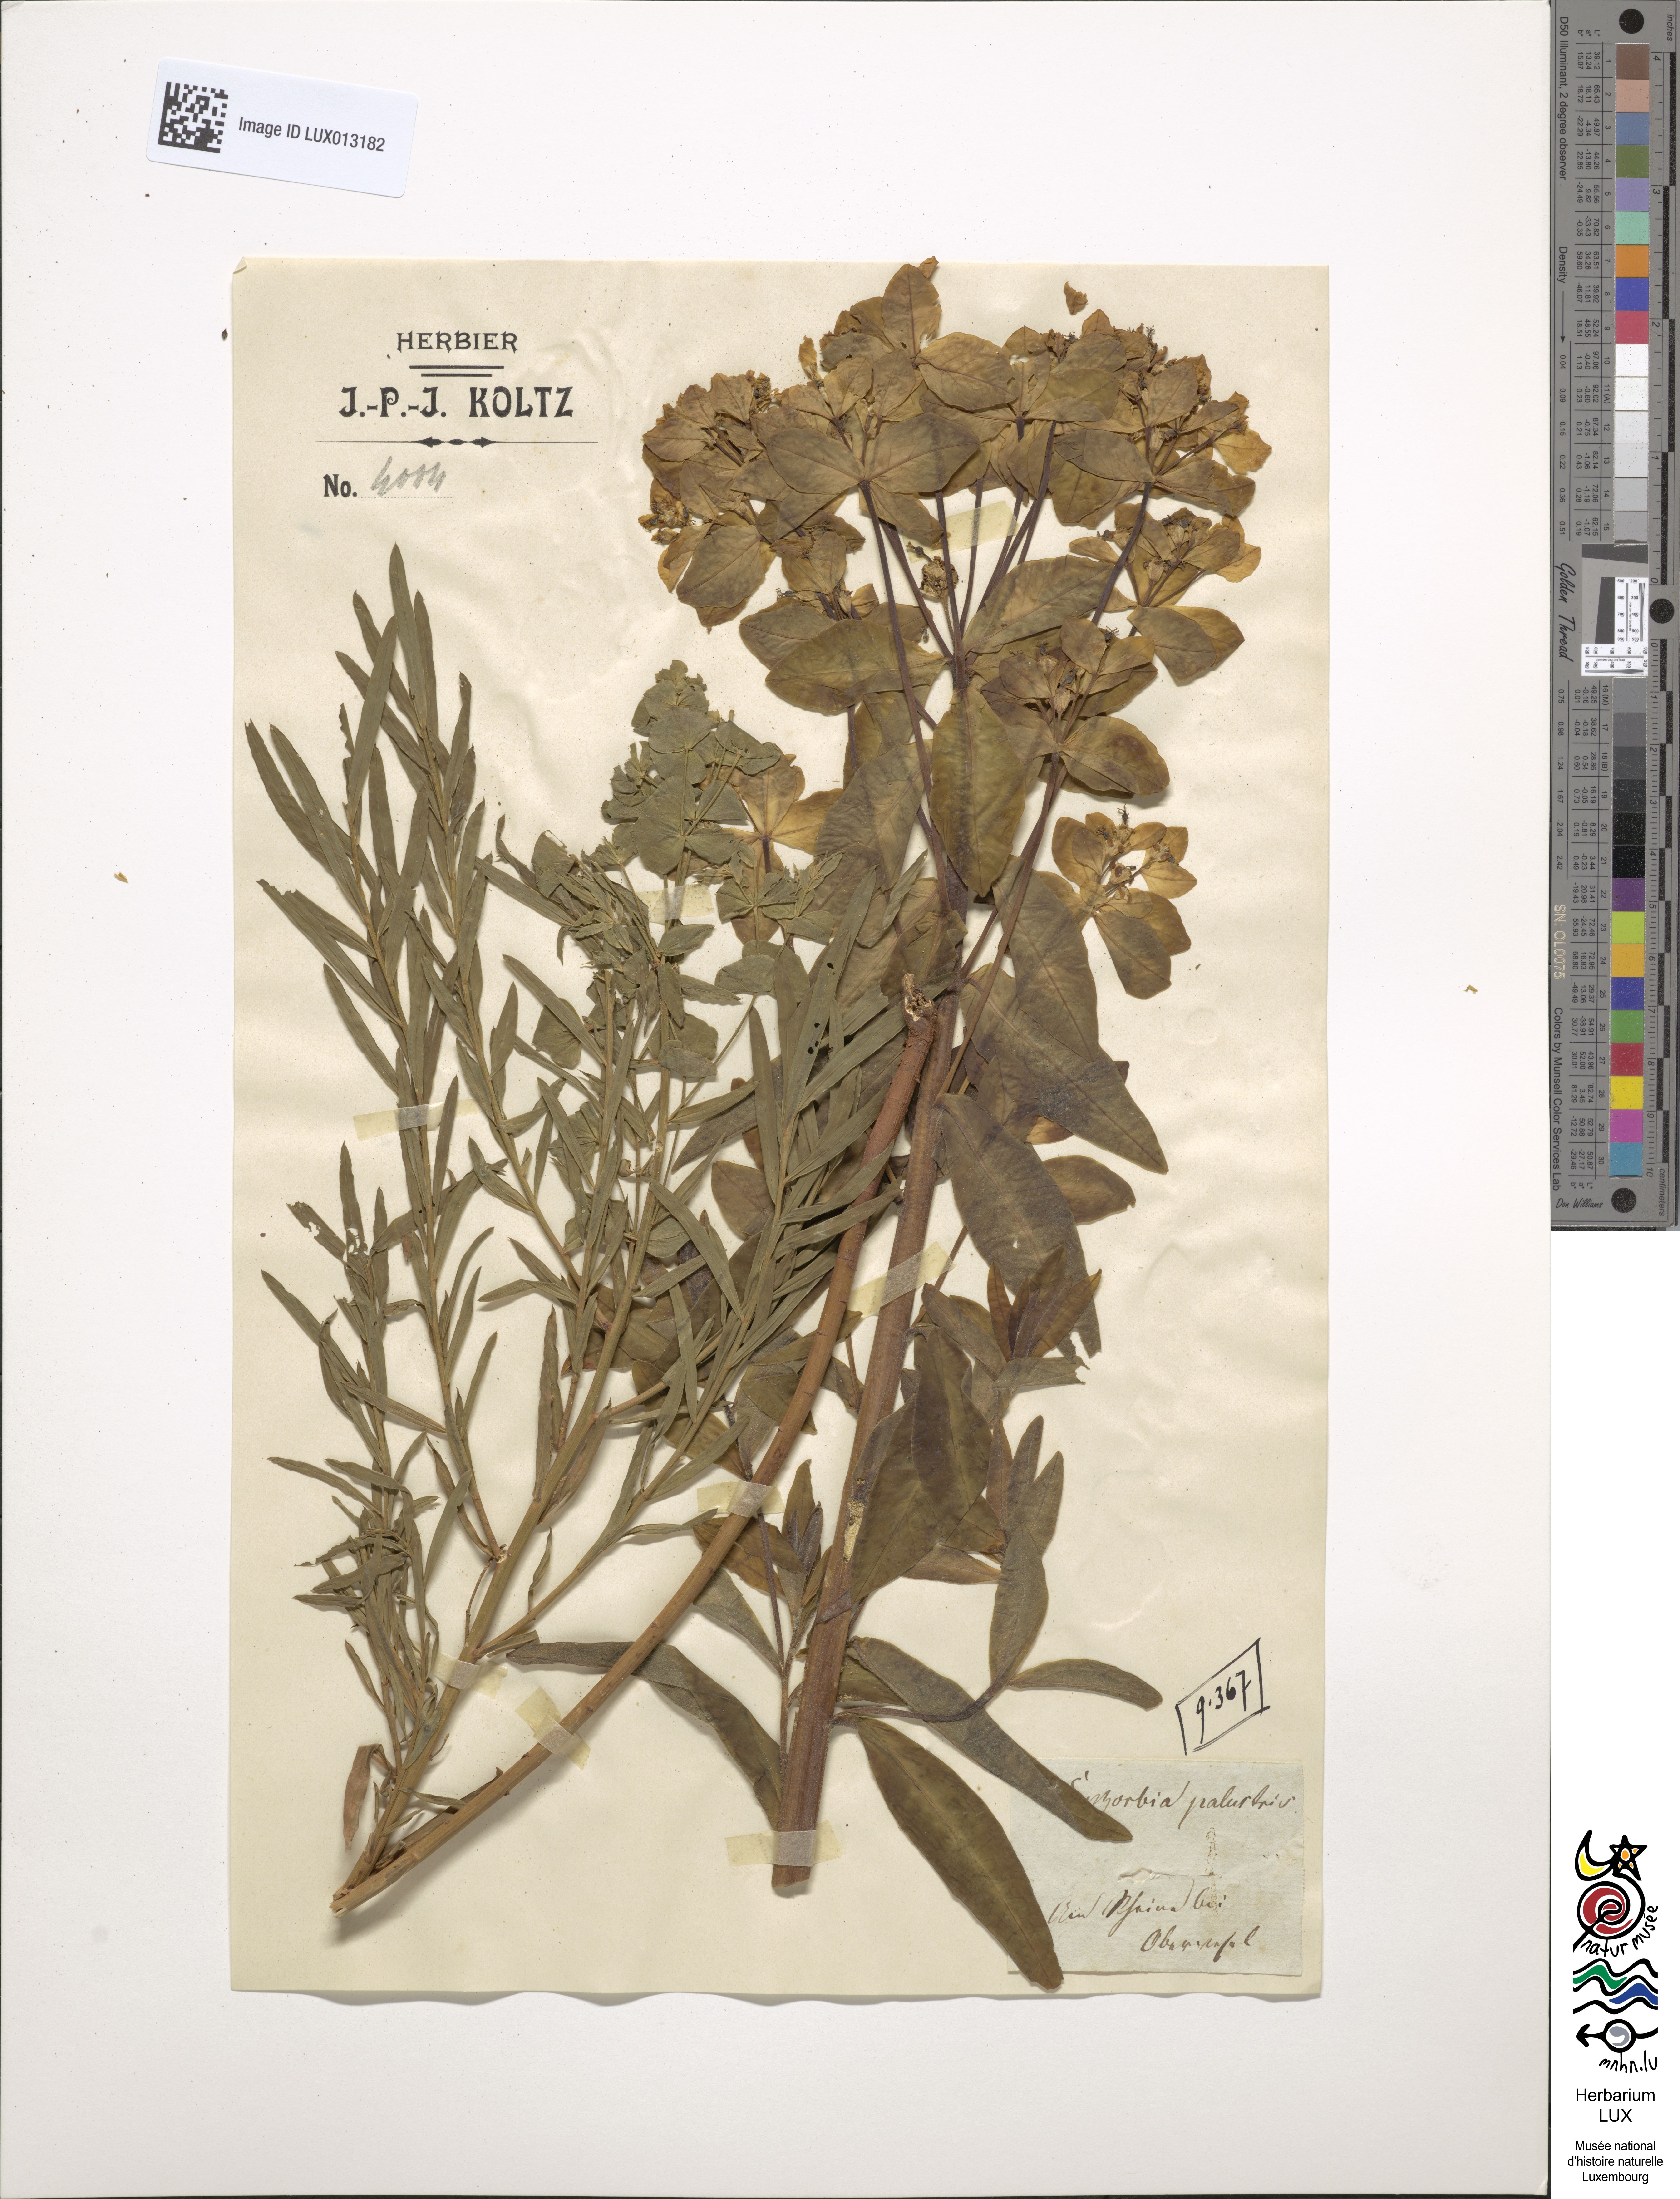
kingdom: Plantae
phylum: Tracheophyta
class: Magnoliopsida
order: Malpighiales
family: Euphorbiaceae
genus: Euphorbia
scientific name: Euphorbia palustris
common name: Marsh spurge
